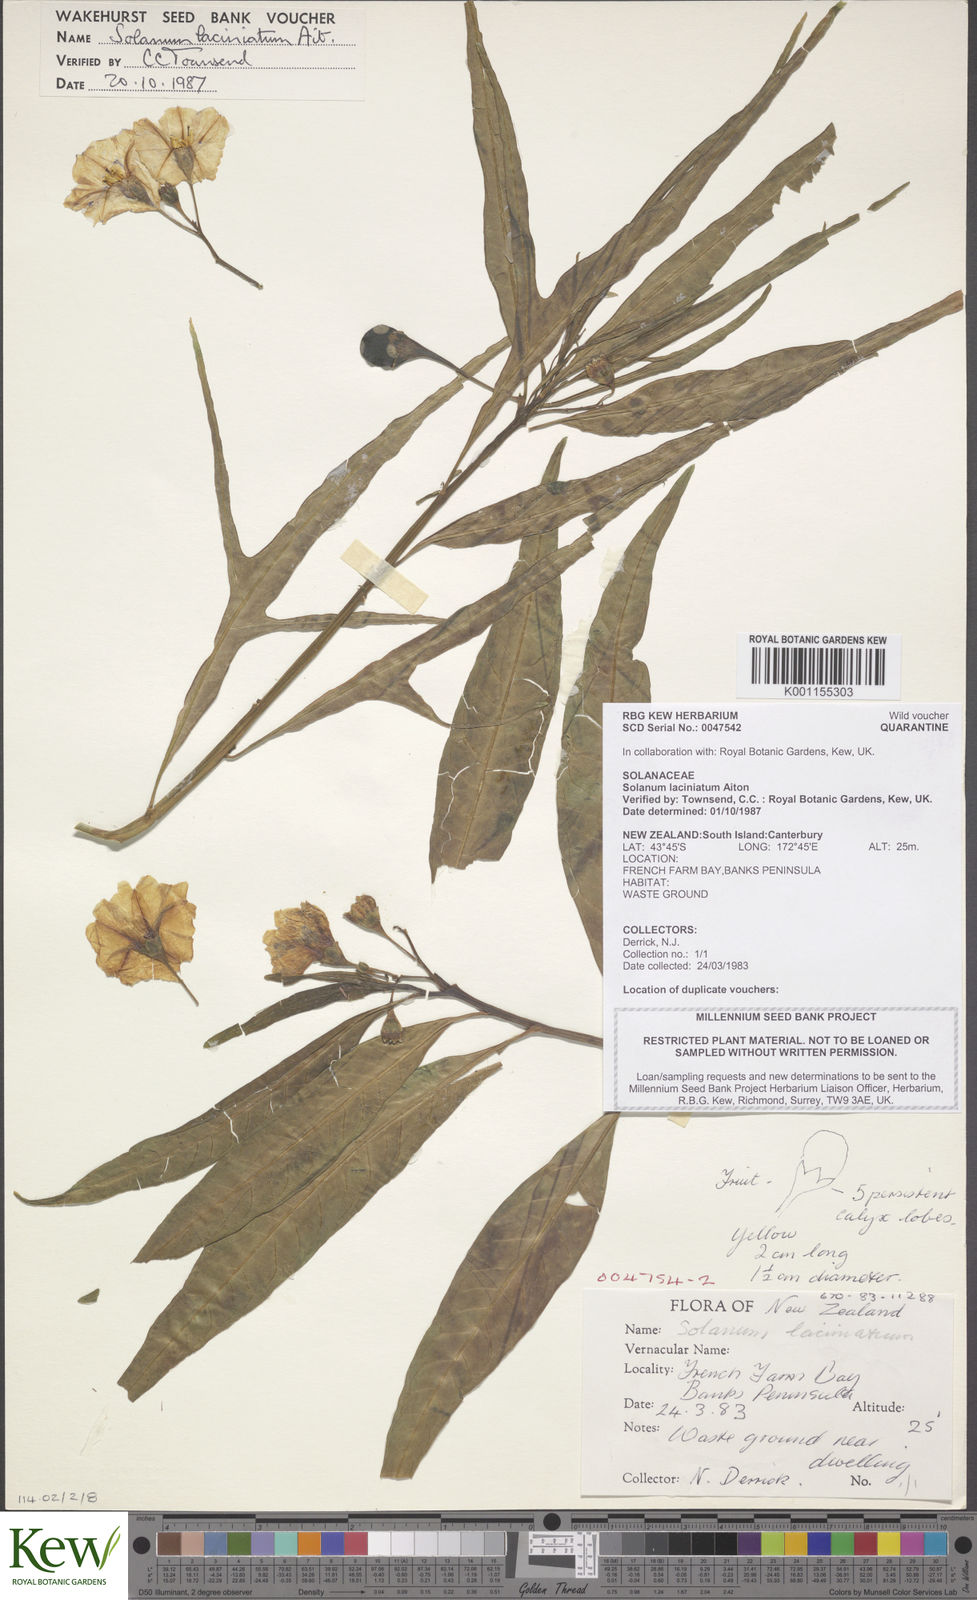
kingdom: Plantae
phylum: Tracheophyta
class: Magnoliopsida
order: Solanales
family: Solanaceae
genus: Solanum
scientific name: Solanum laciniatum
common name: Kangaroo-apple
